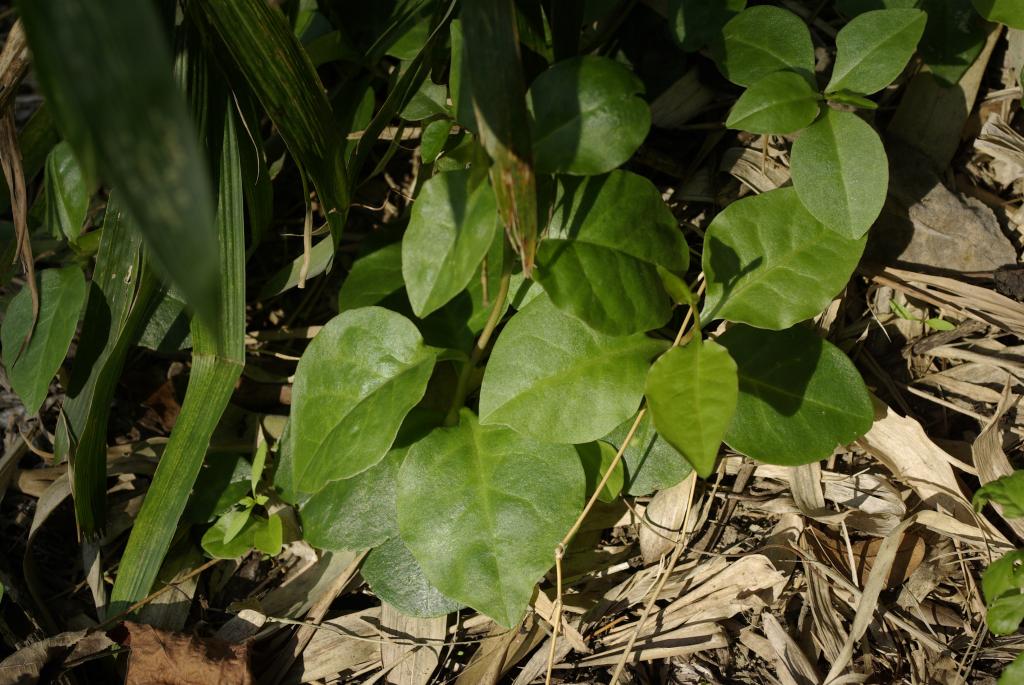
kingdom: Plantae
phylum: Tracheophyta
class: Magnoliopsida
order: Caryophyllales
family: Basellaceae
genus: Anredera
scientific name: Anredera cordifolia
